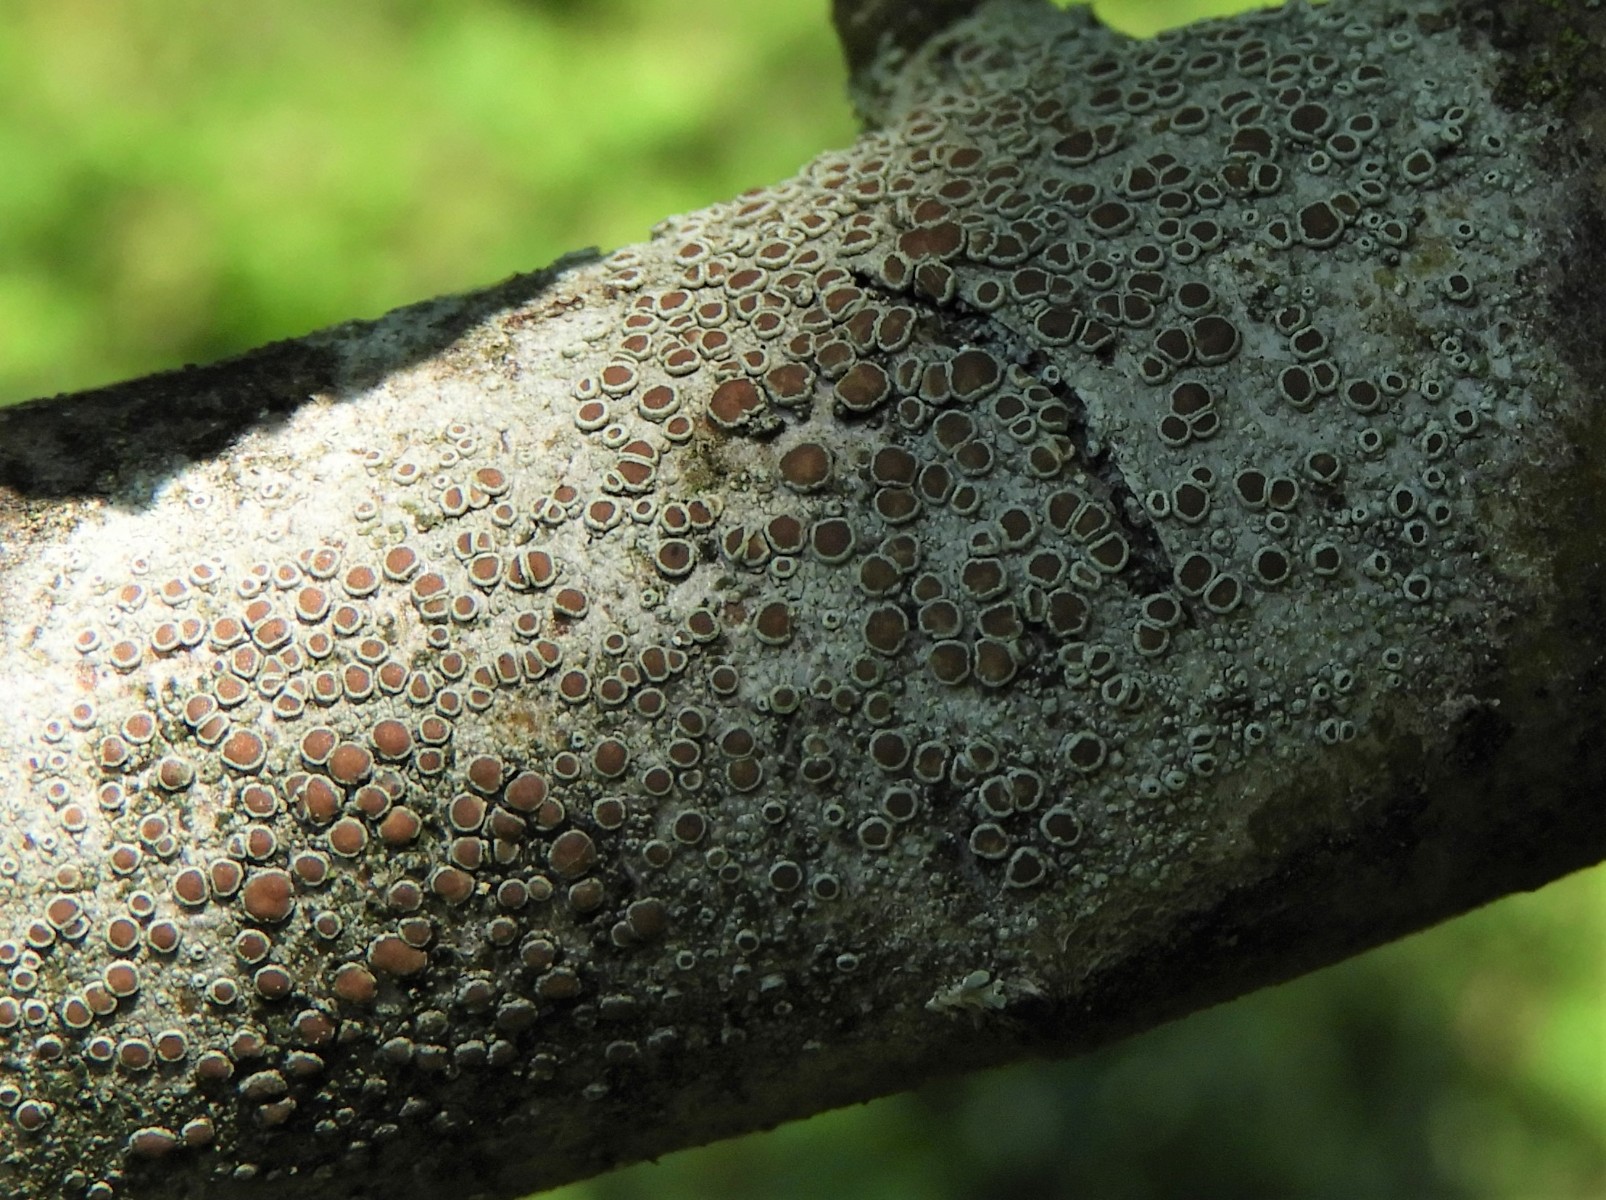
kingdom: Fungi
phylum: Ascomycota
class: Lecanoromycetes
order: Lecanorales
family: Lecanoraceae
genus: Lecanora
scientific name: Lecanora chlarotera
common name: brun kantskivelav
